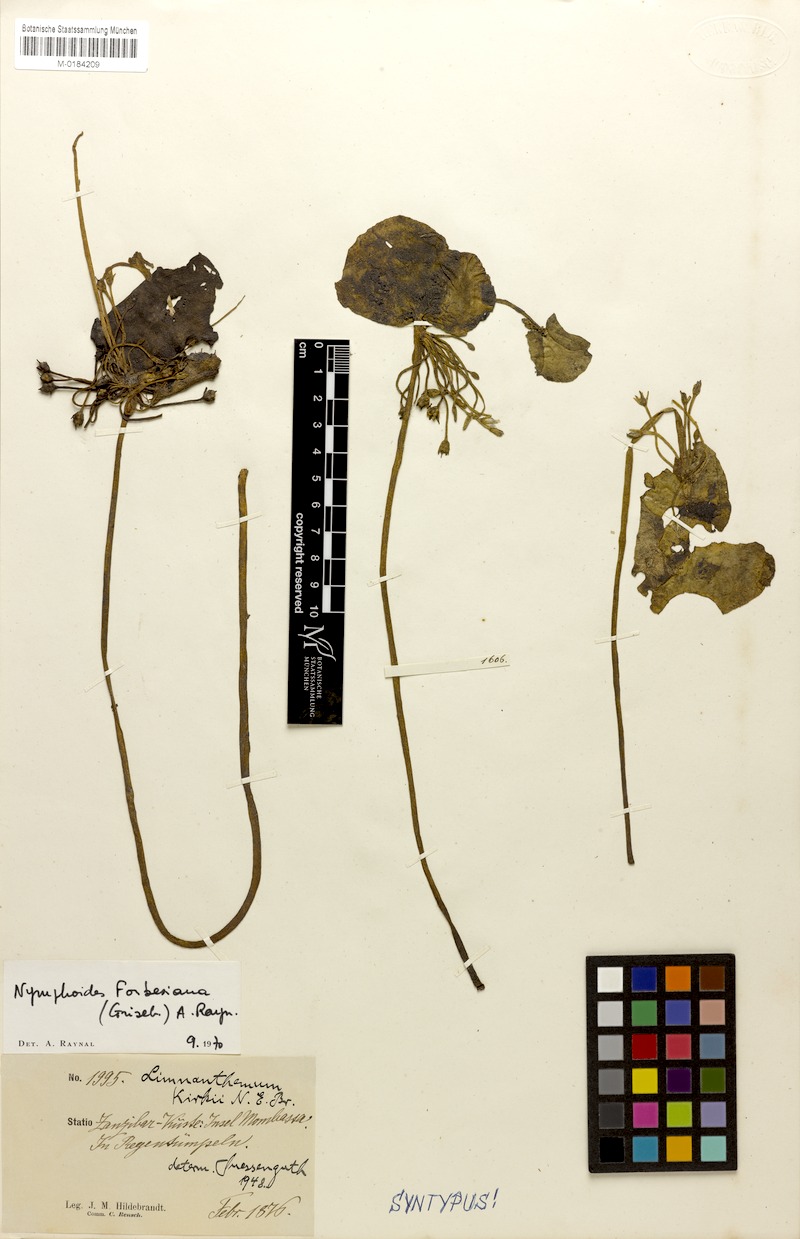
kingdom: Plantae
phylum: Tracheophyta
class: Magnoliopsida
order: Asterales
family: Menyanthaceae
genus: Nymphoides
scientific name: Nymphoides forbesiana
